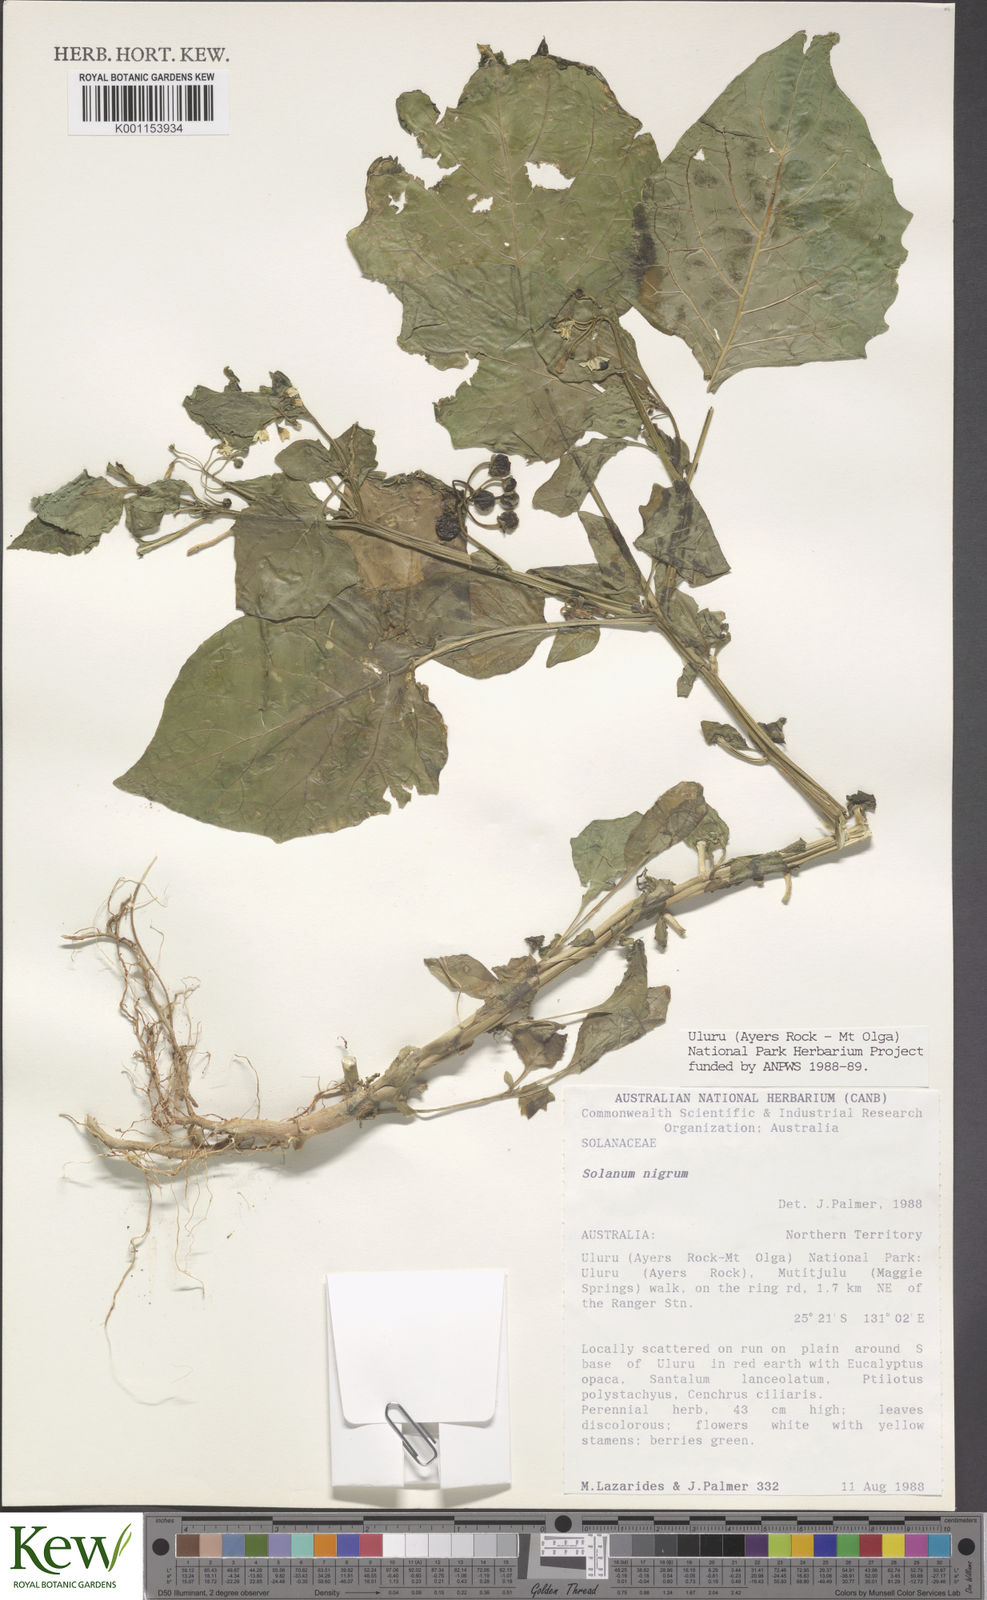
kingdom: Plantae
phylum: Tracheophyta
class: Magnoliopsida
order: Solanales
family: Solanaceae
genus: Solanum
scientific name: Solanum nigrum
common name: Black nightshade
